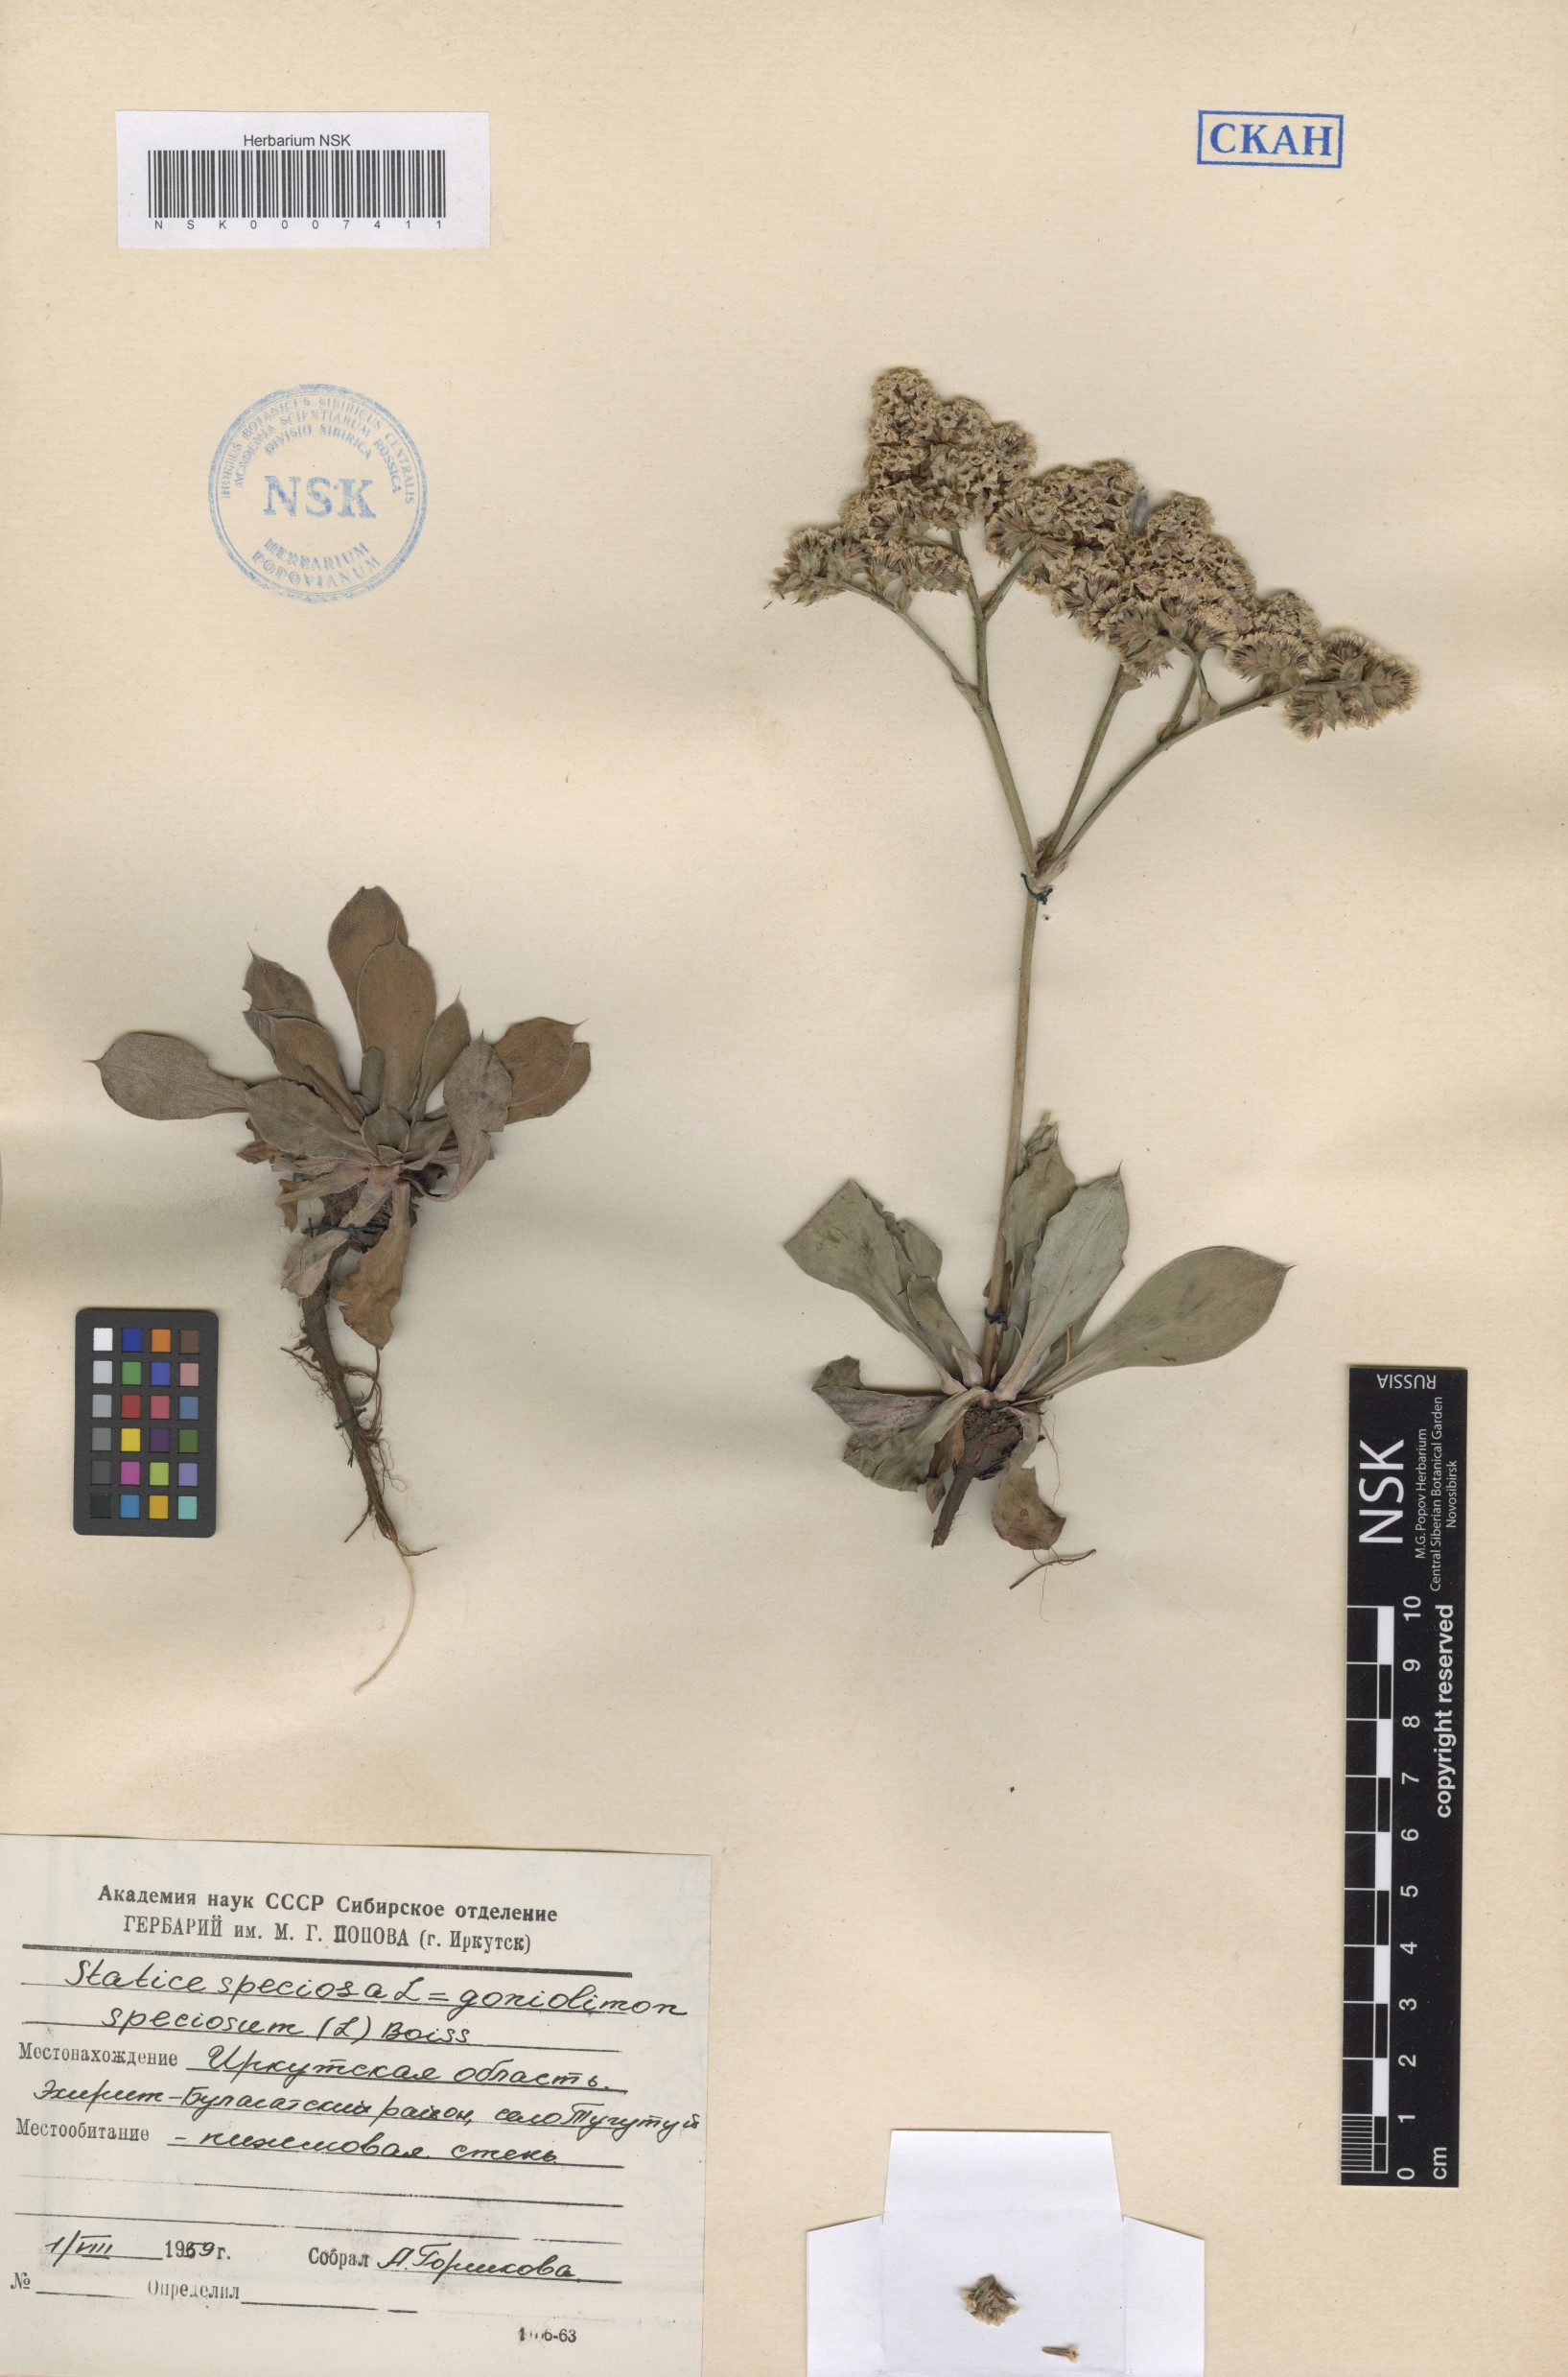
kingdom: Plantae
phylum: Tracheophyta
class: Magnoliopsida
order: Caryophyllales
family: Plumbaginaceae
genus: Goniolimon
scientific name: Goniolimon speciosum
